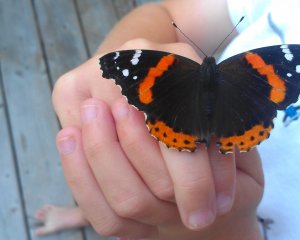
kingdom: Animalia
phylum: Arthropoda
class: Insecta
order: Lepidoptera
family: Nymphalidae
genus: Vanessa
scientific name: Vanessa atalanta
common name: Red Admiral
